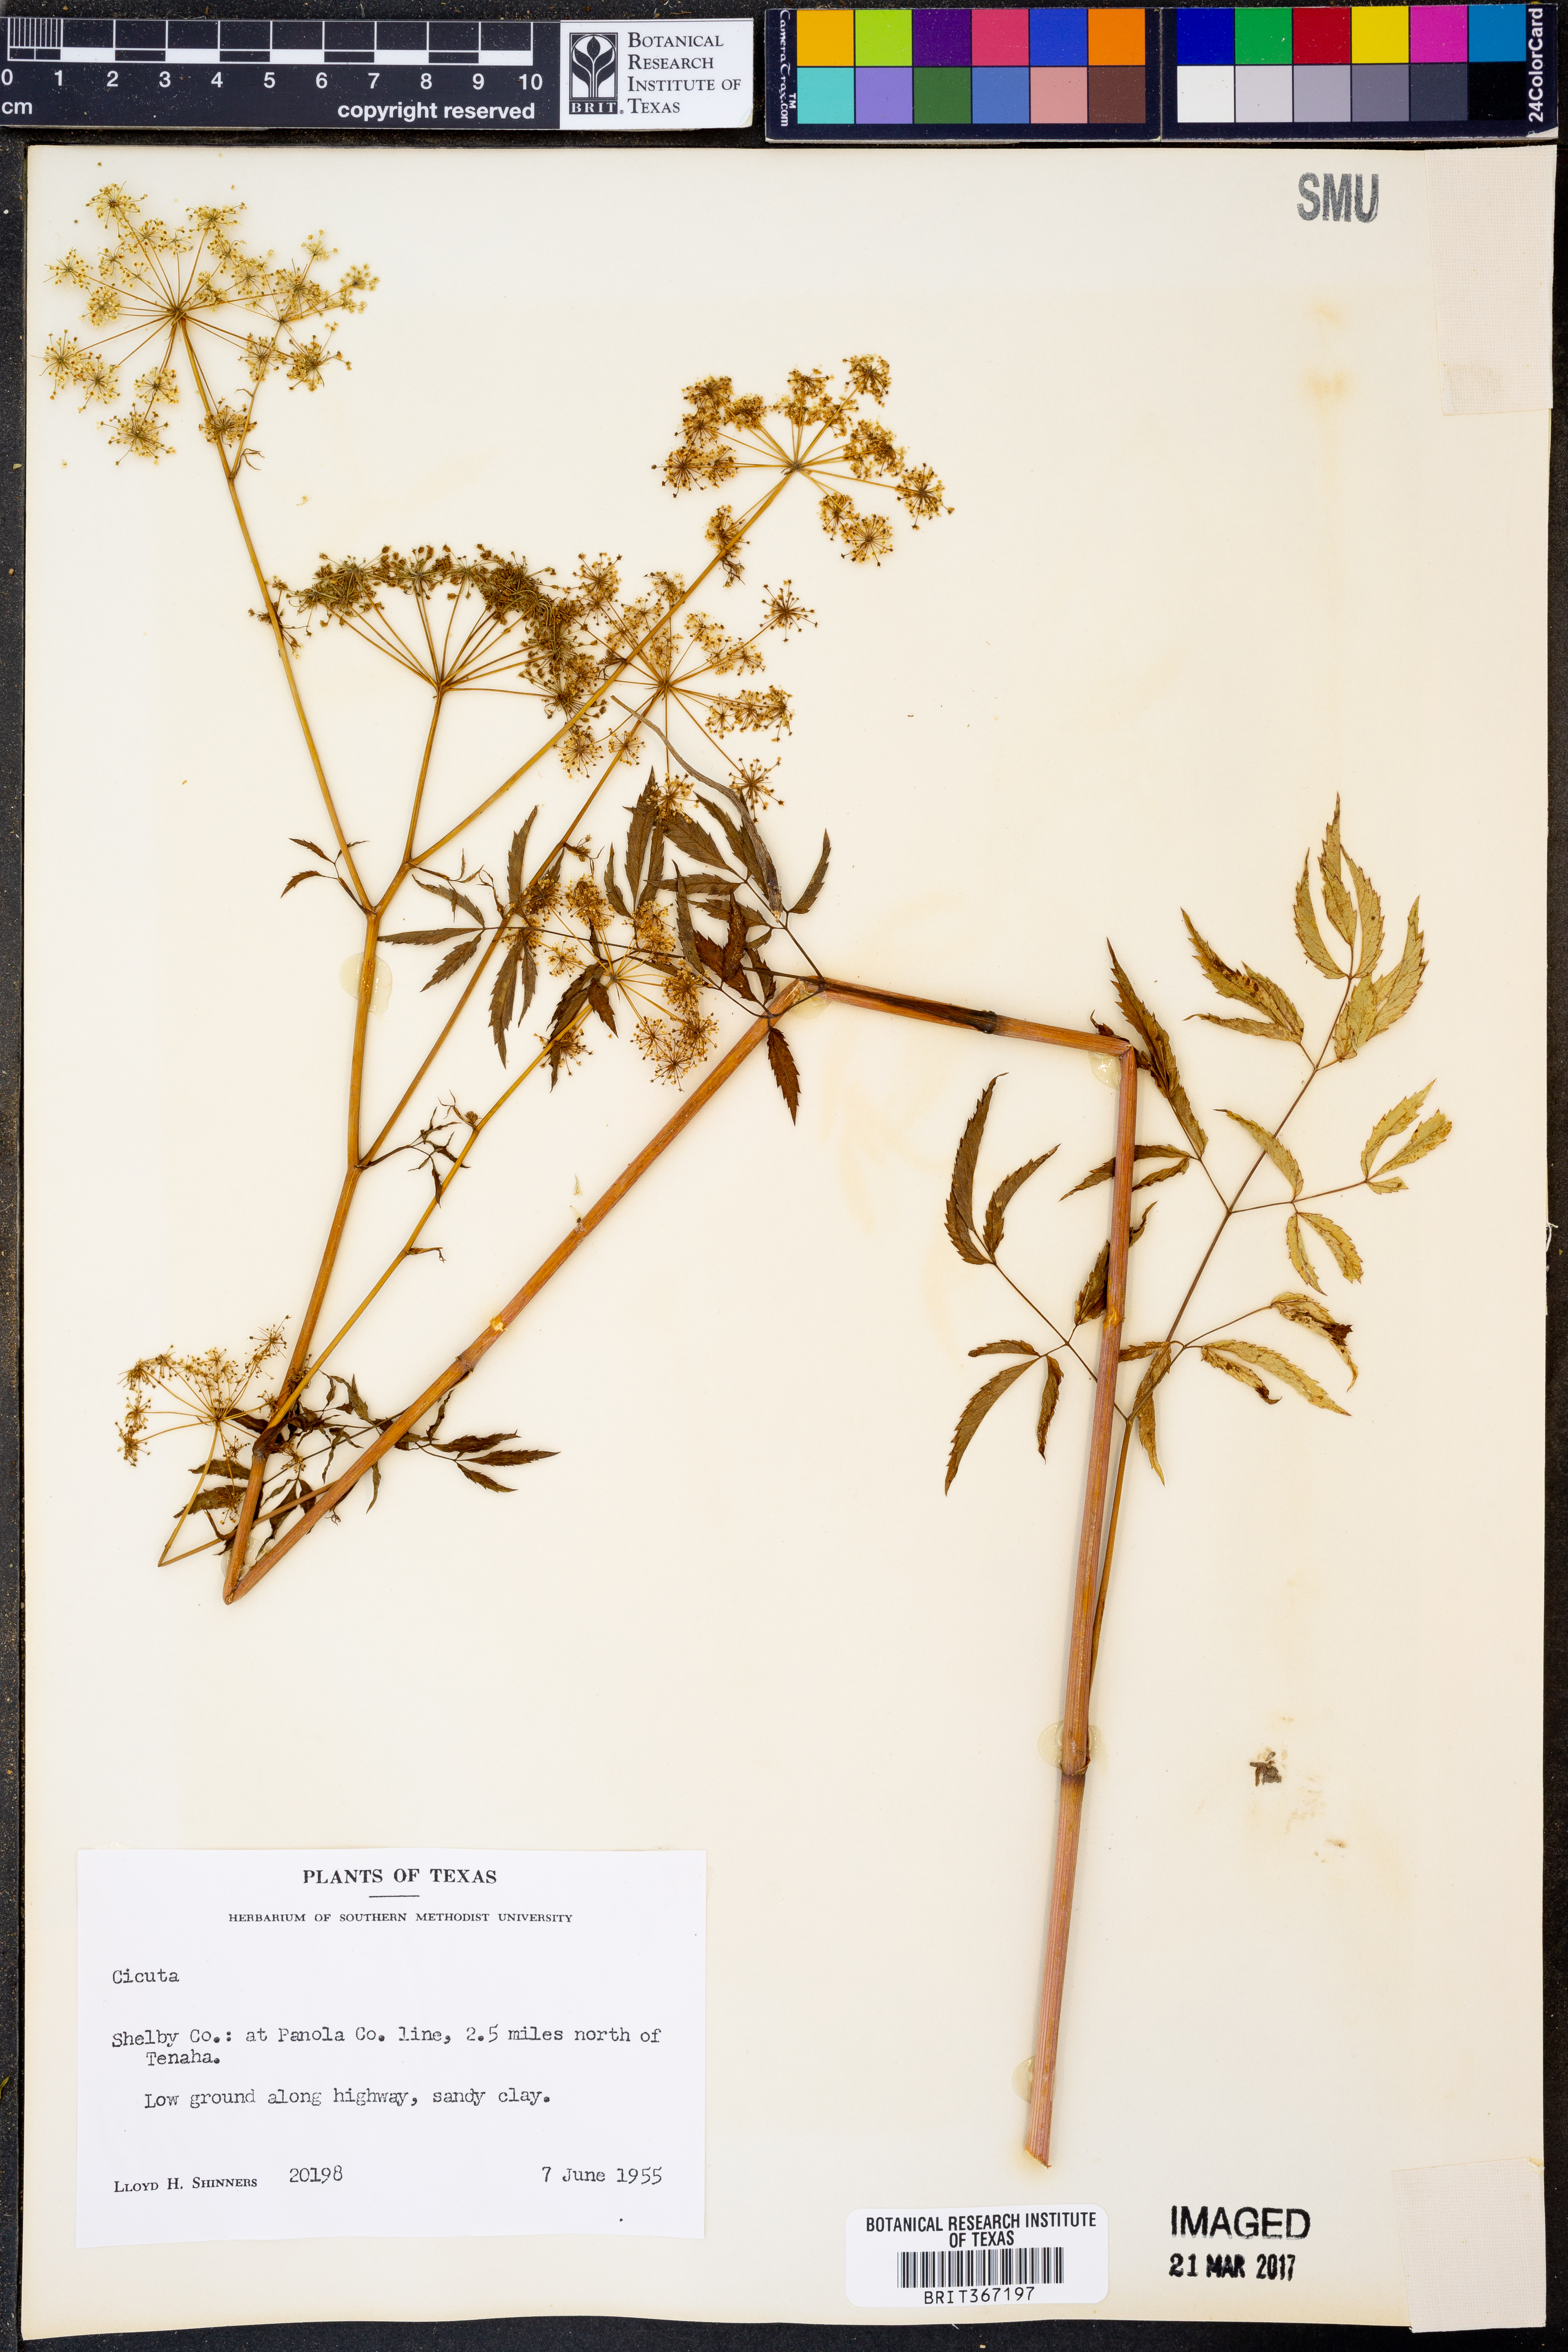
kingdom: Plantae
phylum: Tracheophyta
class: Magnoliopsida
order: Apiales
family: Apiaceae
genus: Cicuta
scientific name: Cicuta
